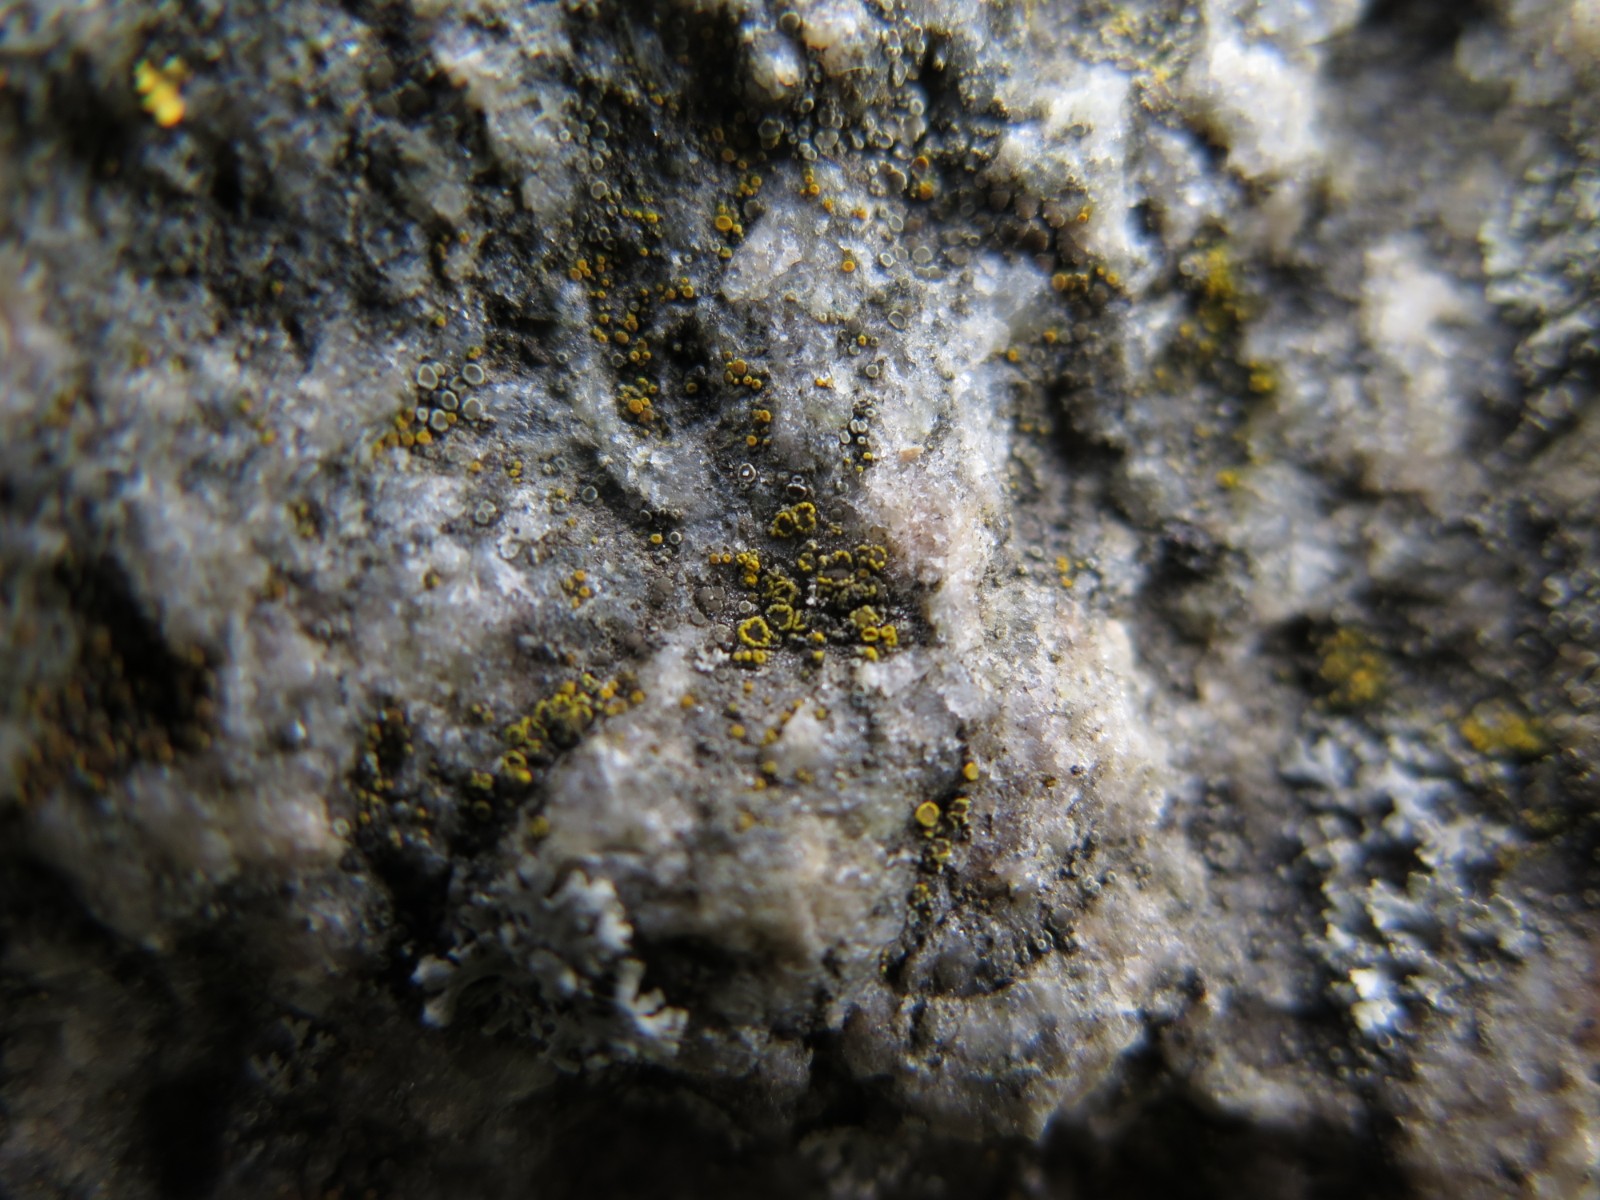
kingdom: Fungi
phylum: Ascomycota
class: Candelariomycetes
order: Candelariales
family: Candelariaceae
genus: Candelariella
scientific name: Candelariella vitellina
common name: almindelig æggeblommelav
